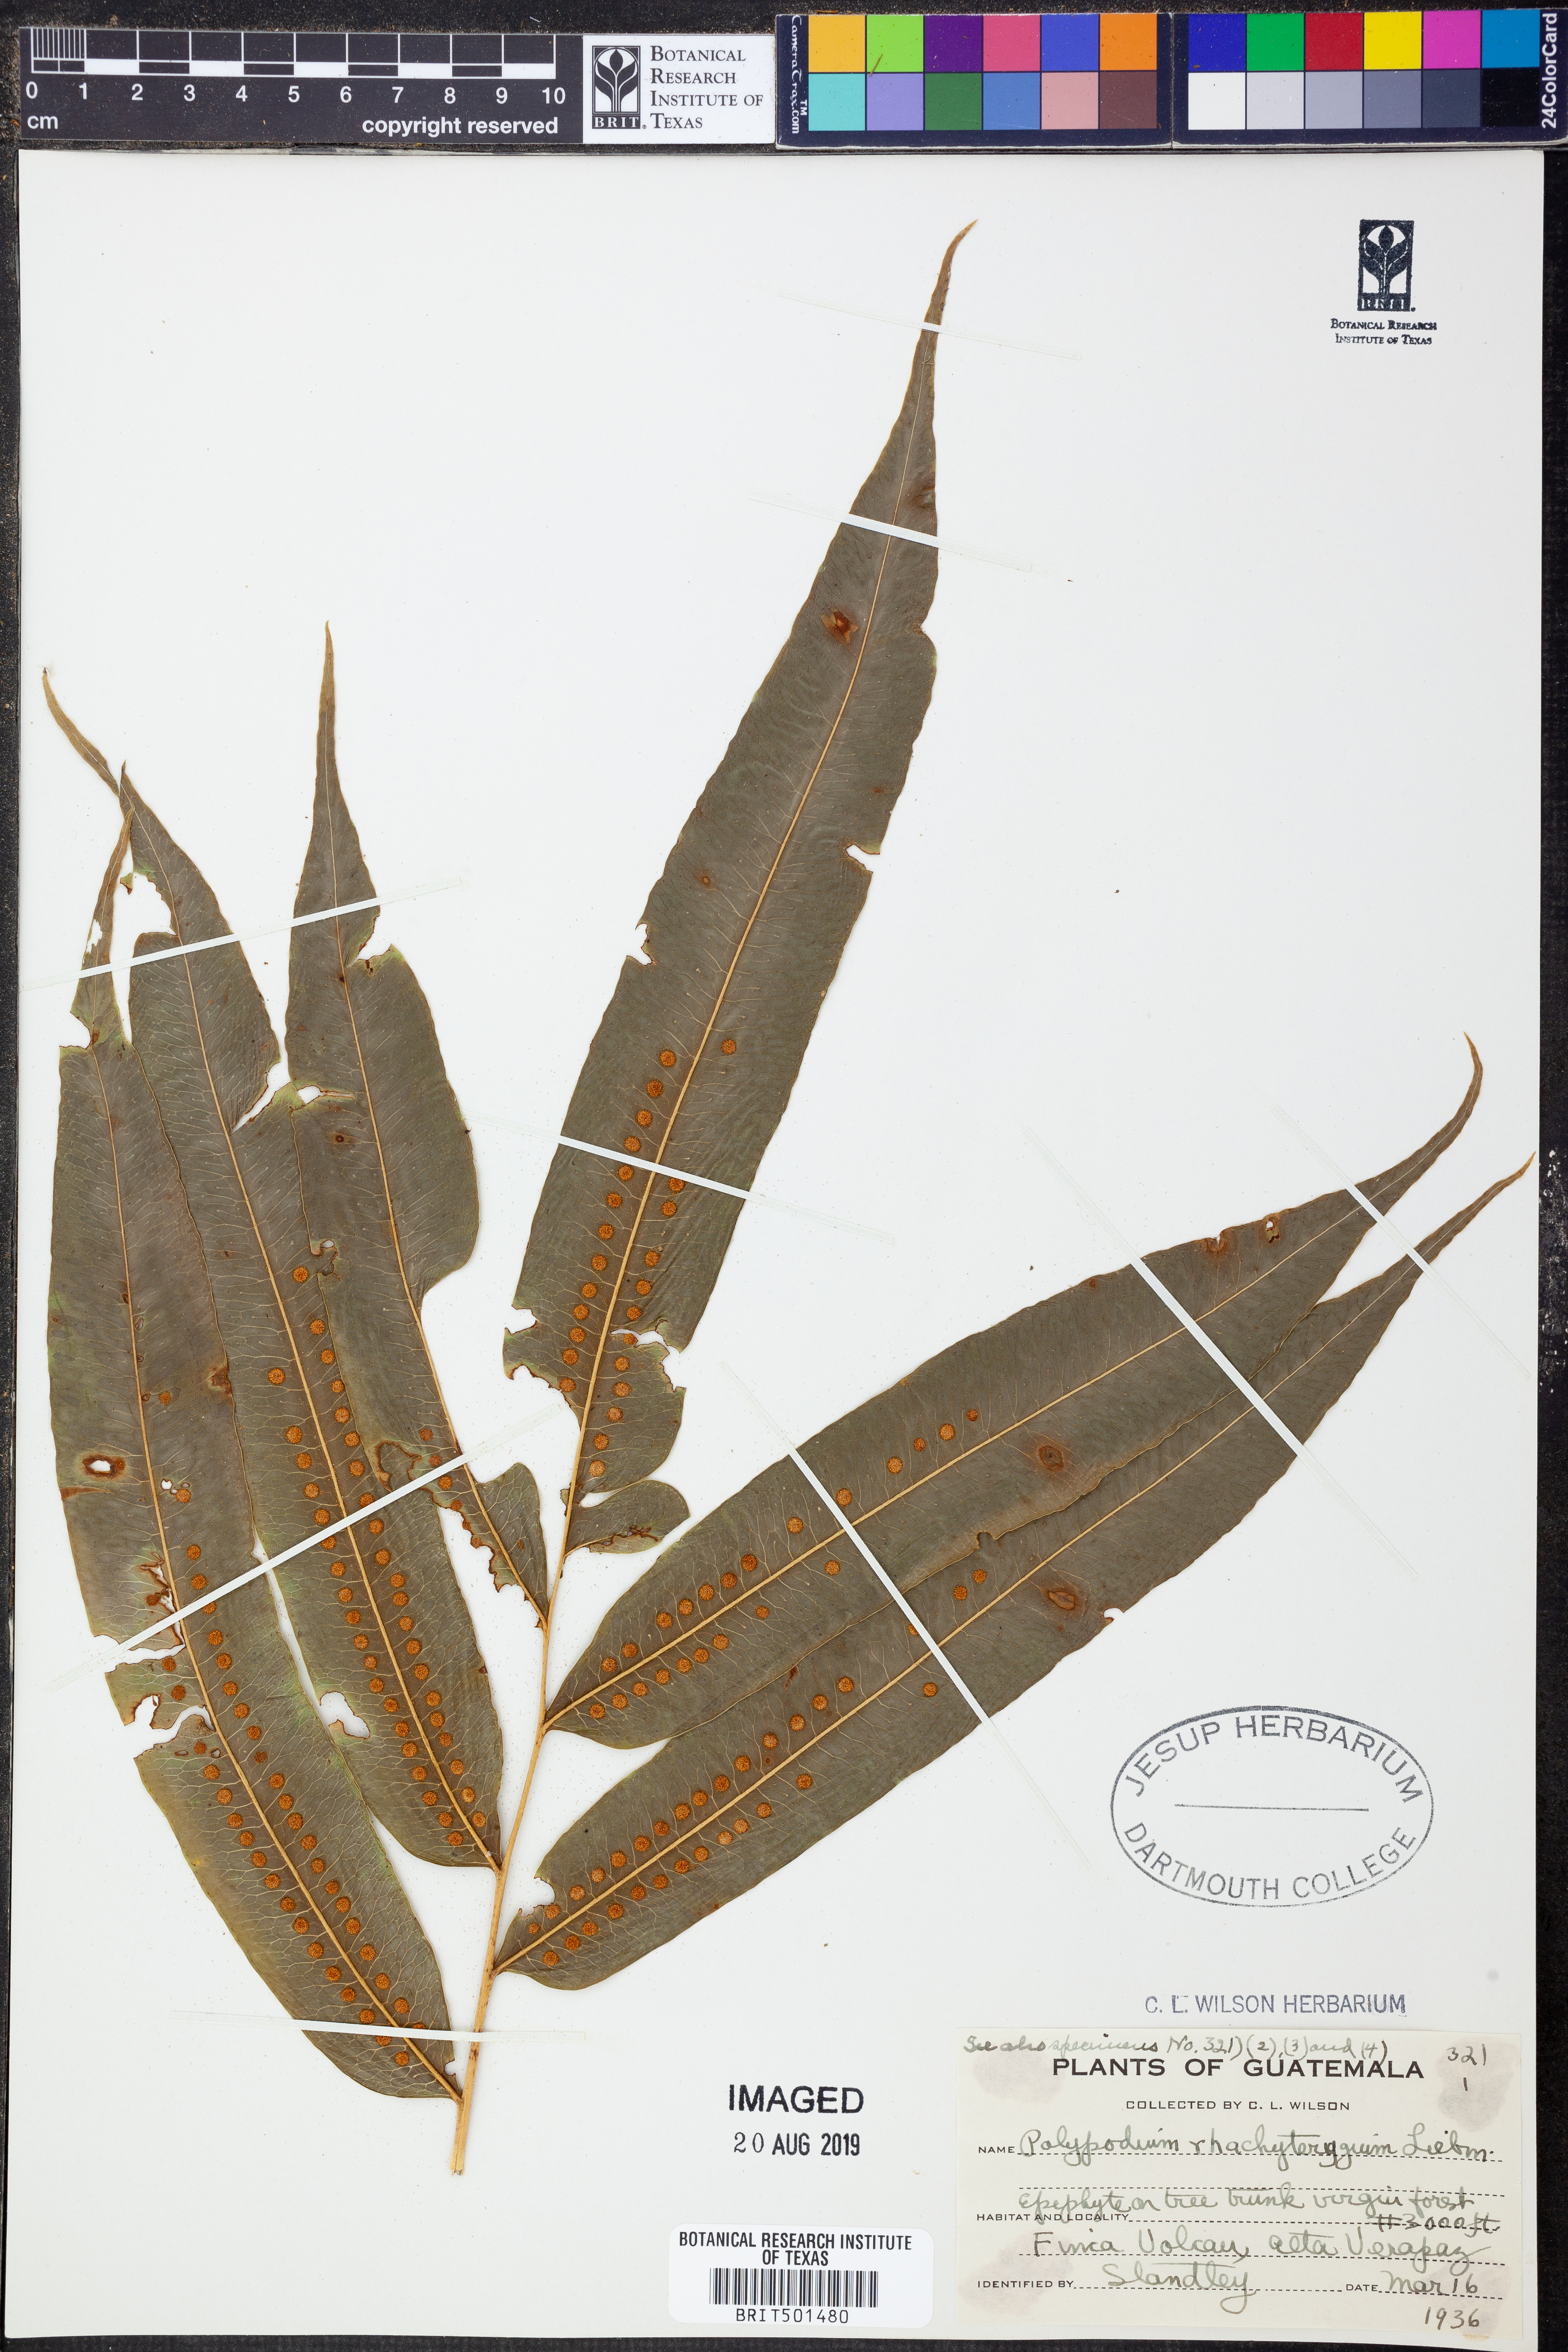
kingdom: Plantae
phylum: Tracheophyta
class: Polypodiopsida
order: Polypodiales
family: Polypodiaceae
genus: Pecluma
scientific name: Pecluma rhachipterygia
